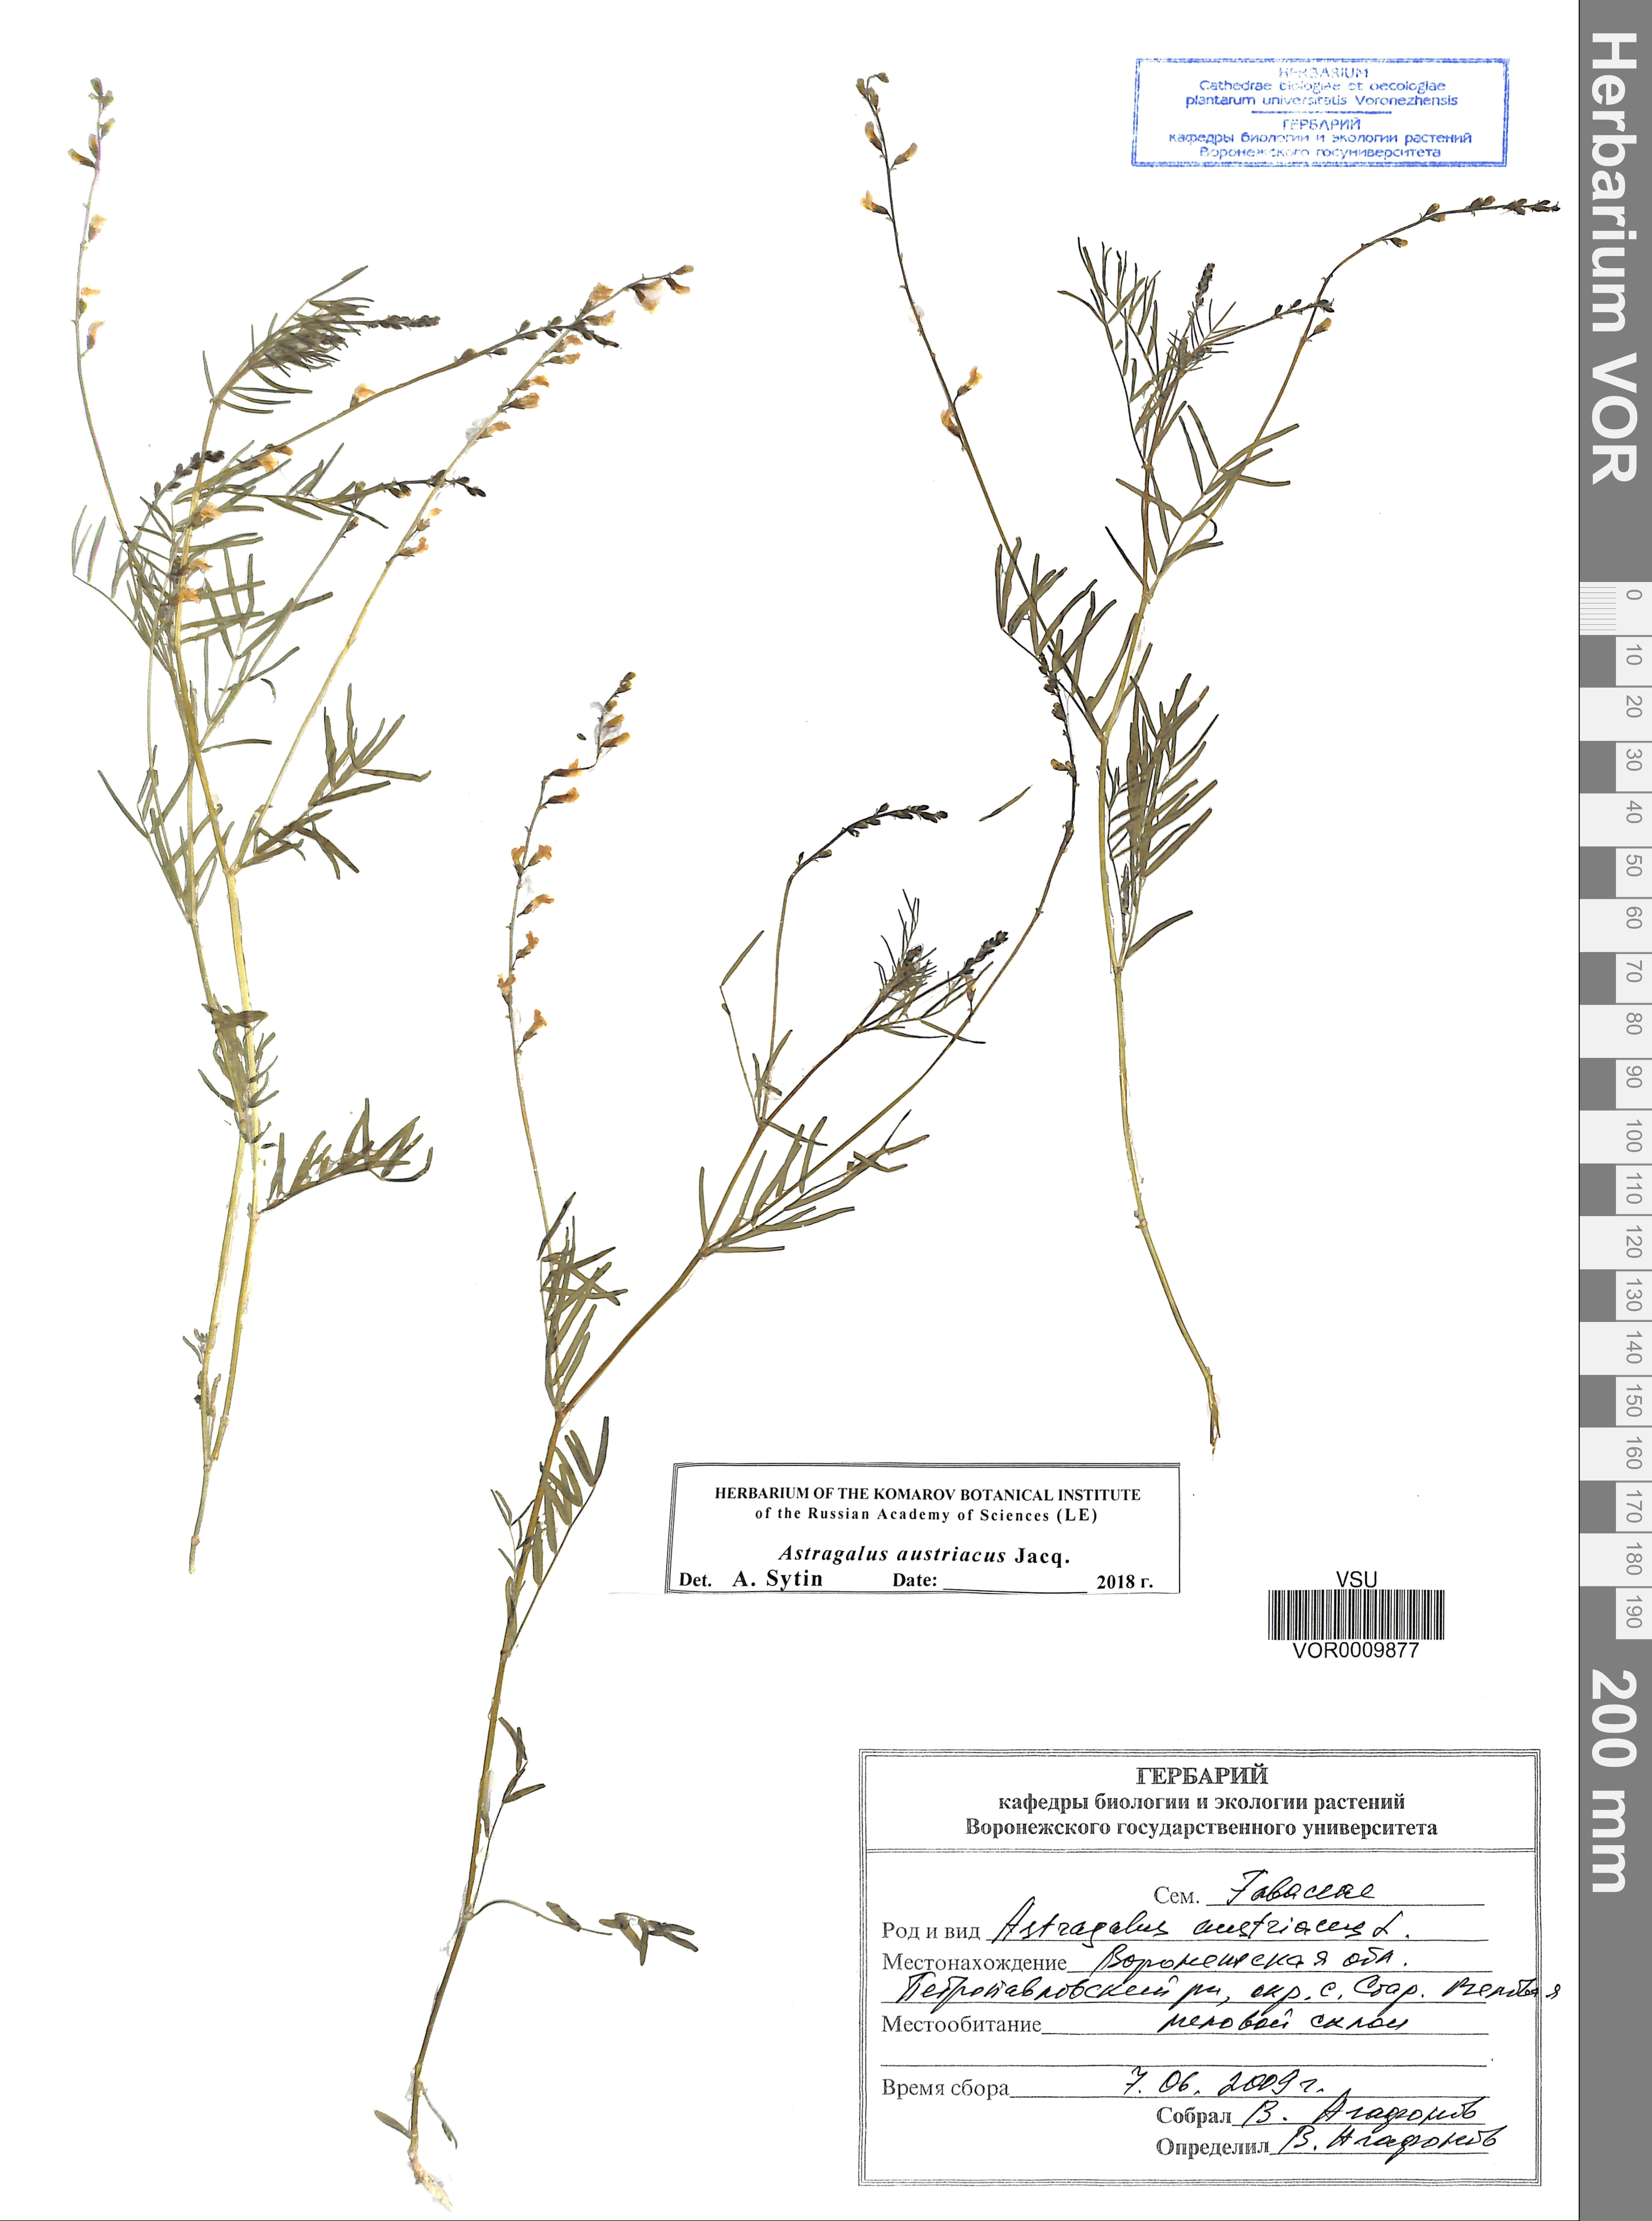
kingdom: Plantae
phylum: Tracheophyta
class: Magnoliopsida
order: Fabales
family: Fabaceae
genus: Astragalus
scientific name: Astragalus austriacus
